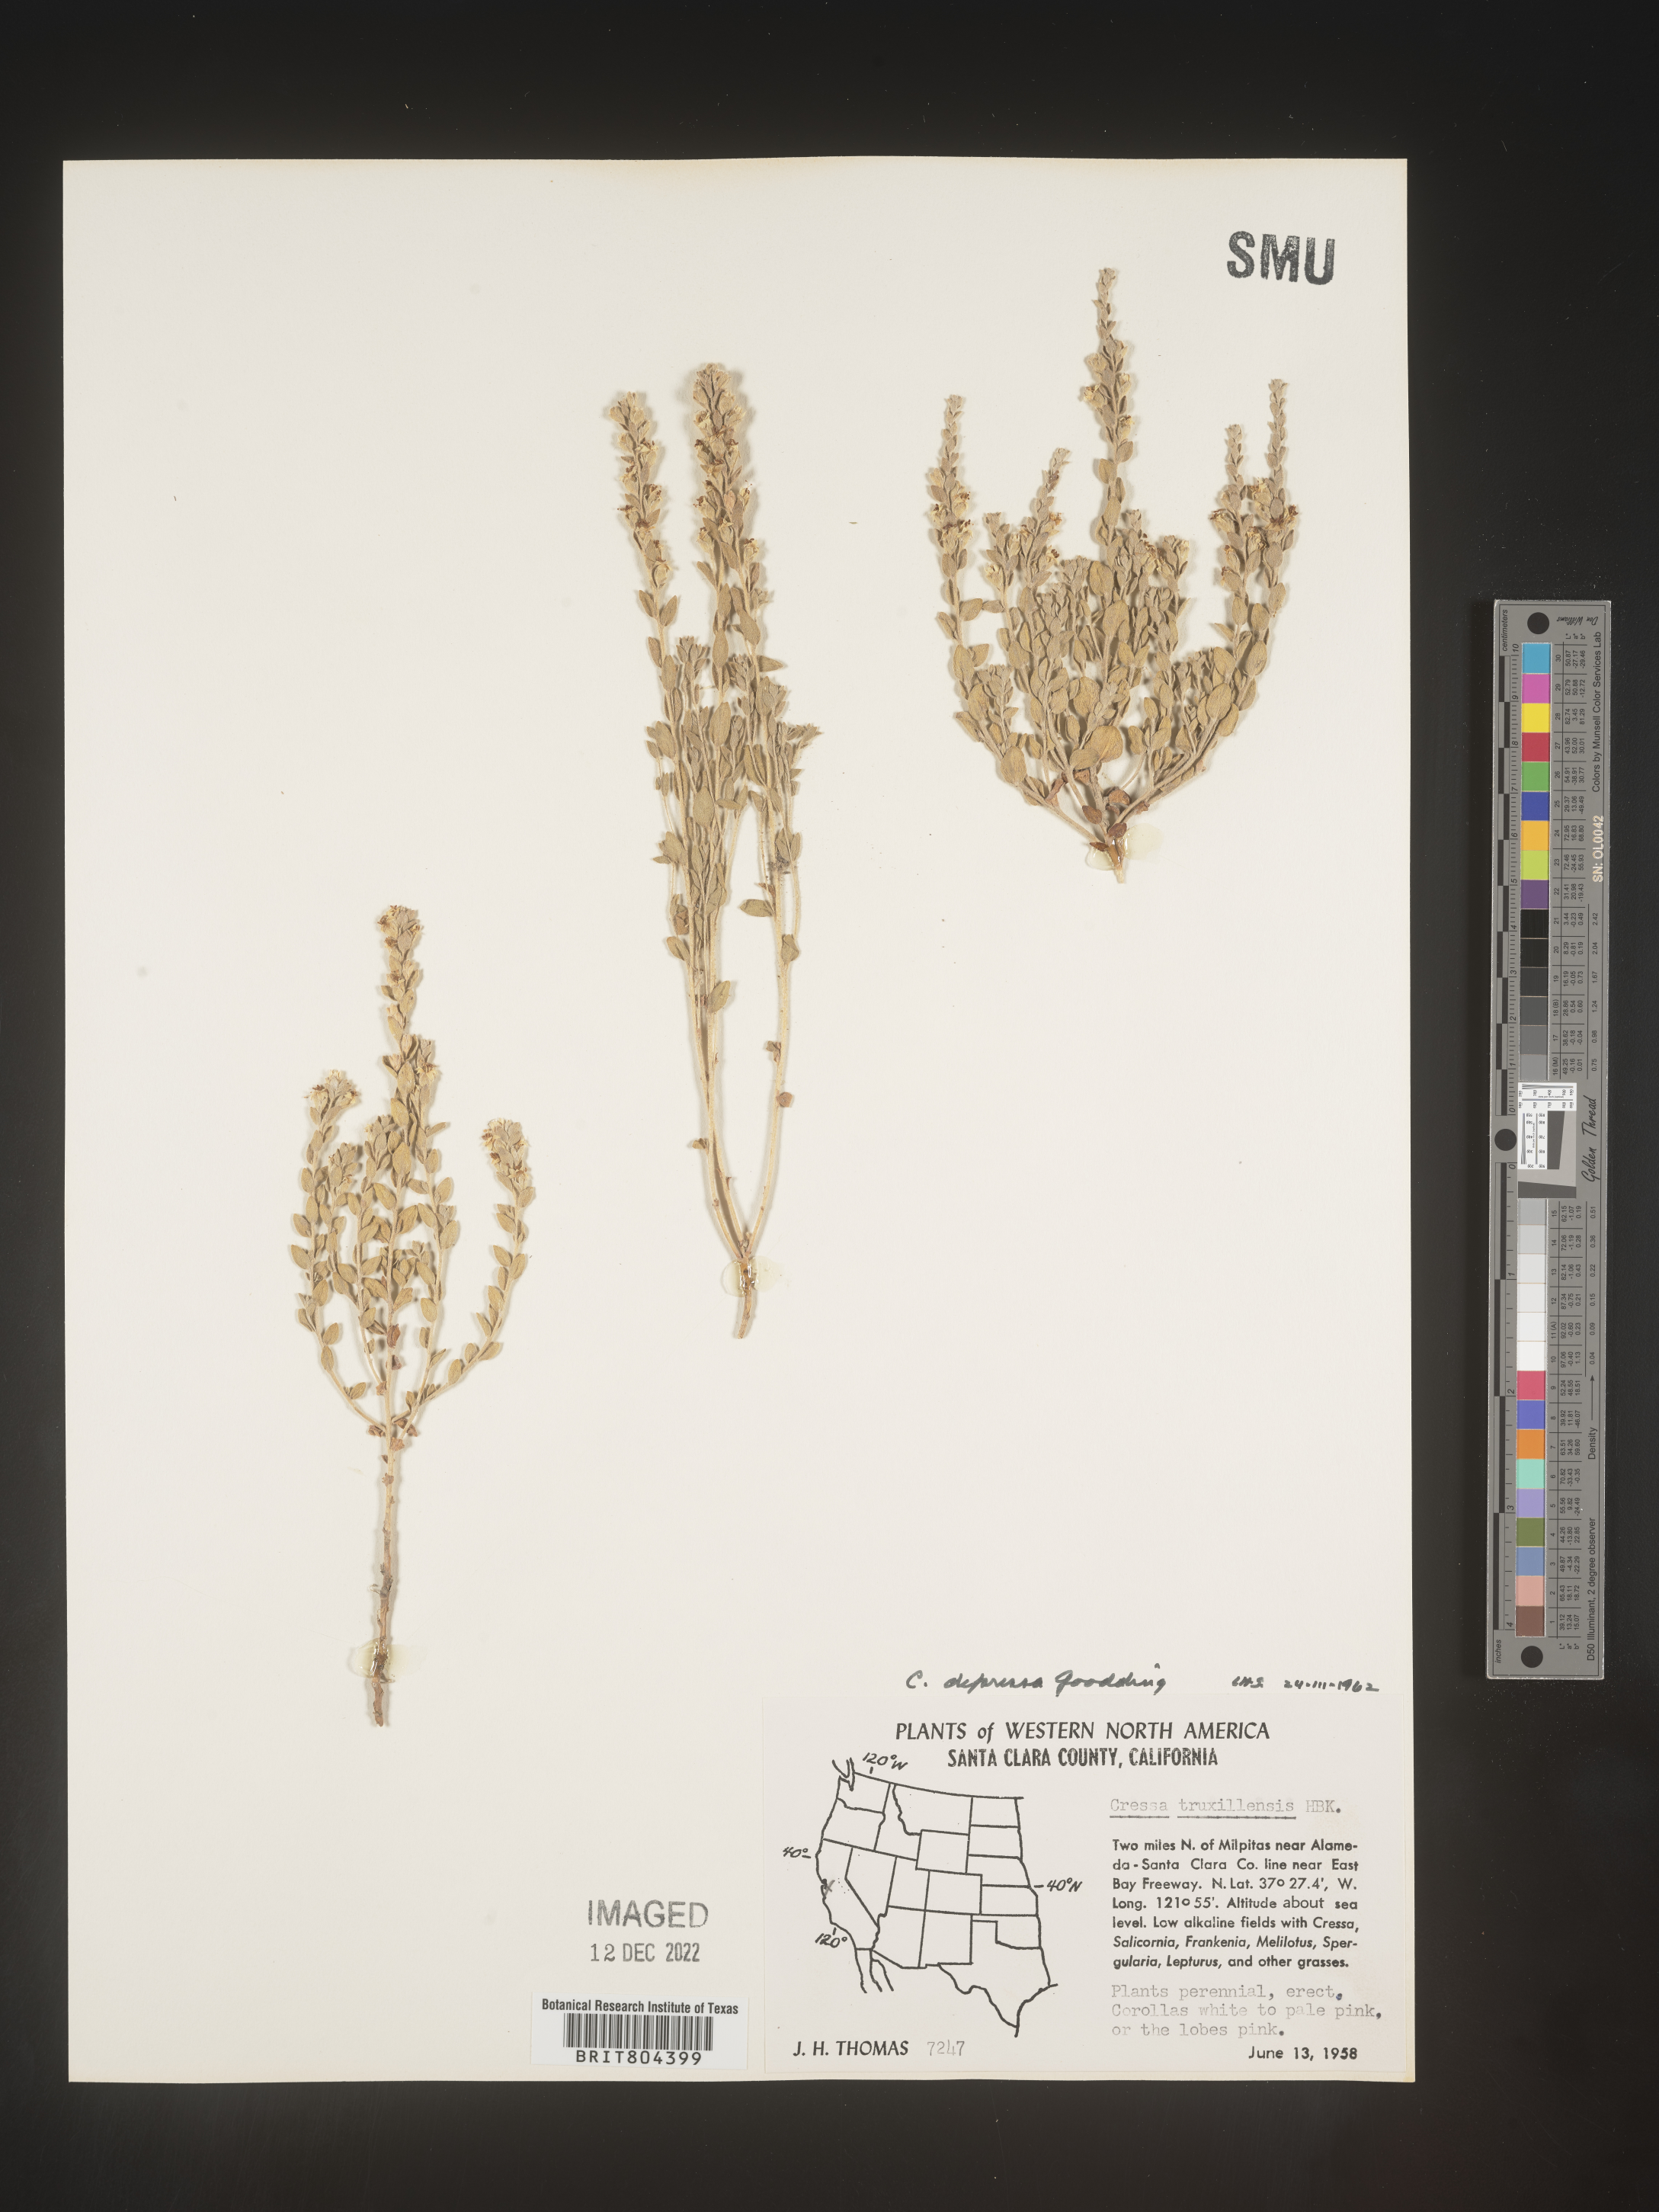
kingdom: Plantae
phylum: Tracheophyta
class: Magnoliopsida
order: Solanales
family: Convolvulaceae
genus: Cressa
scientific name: Cressa
